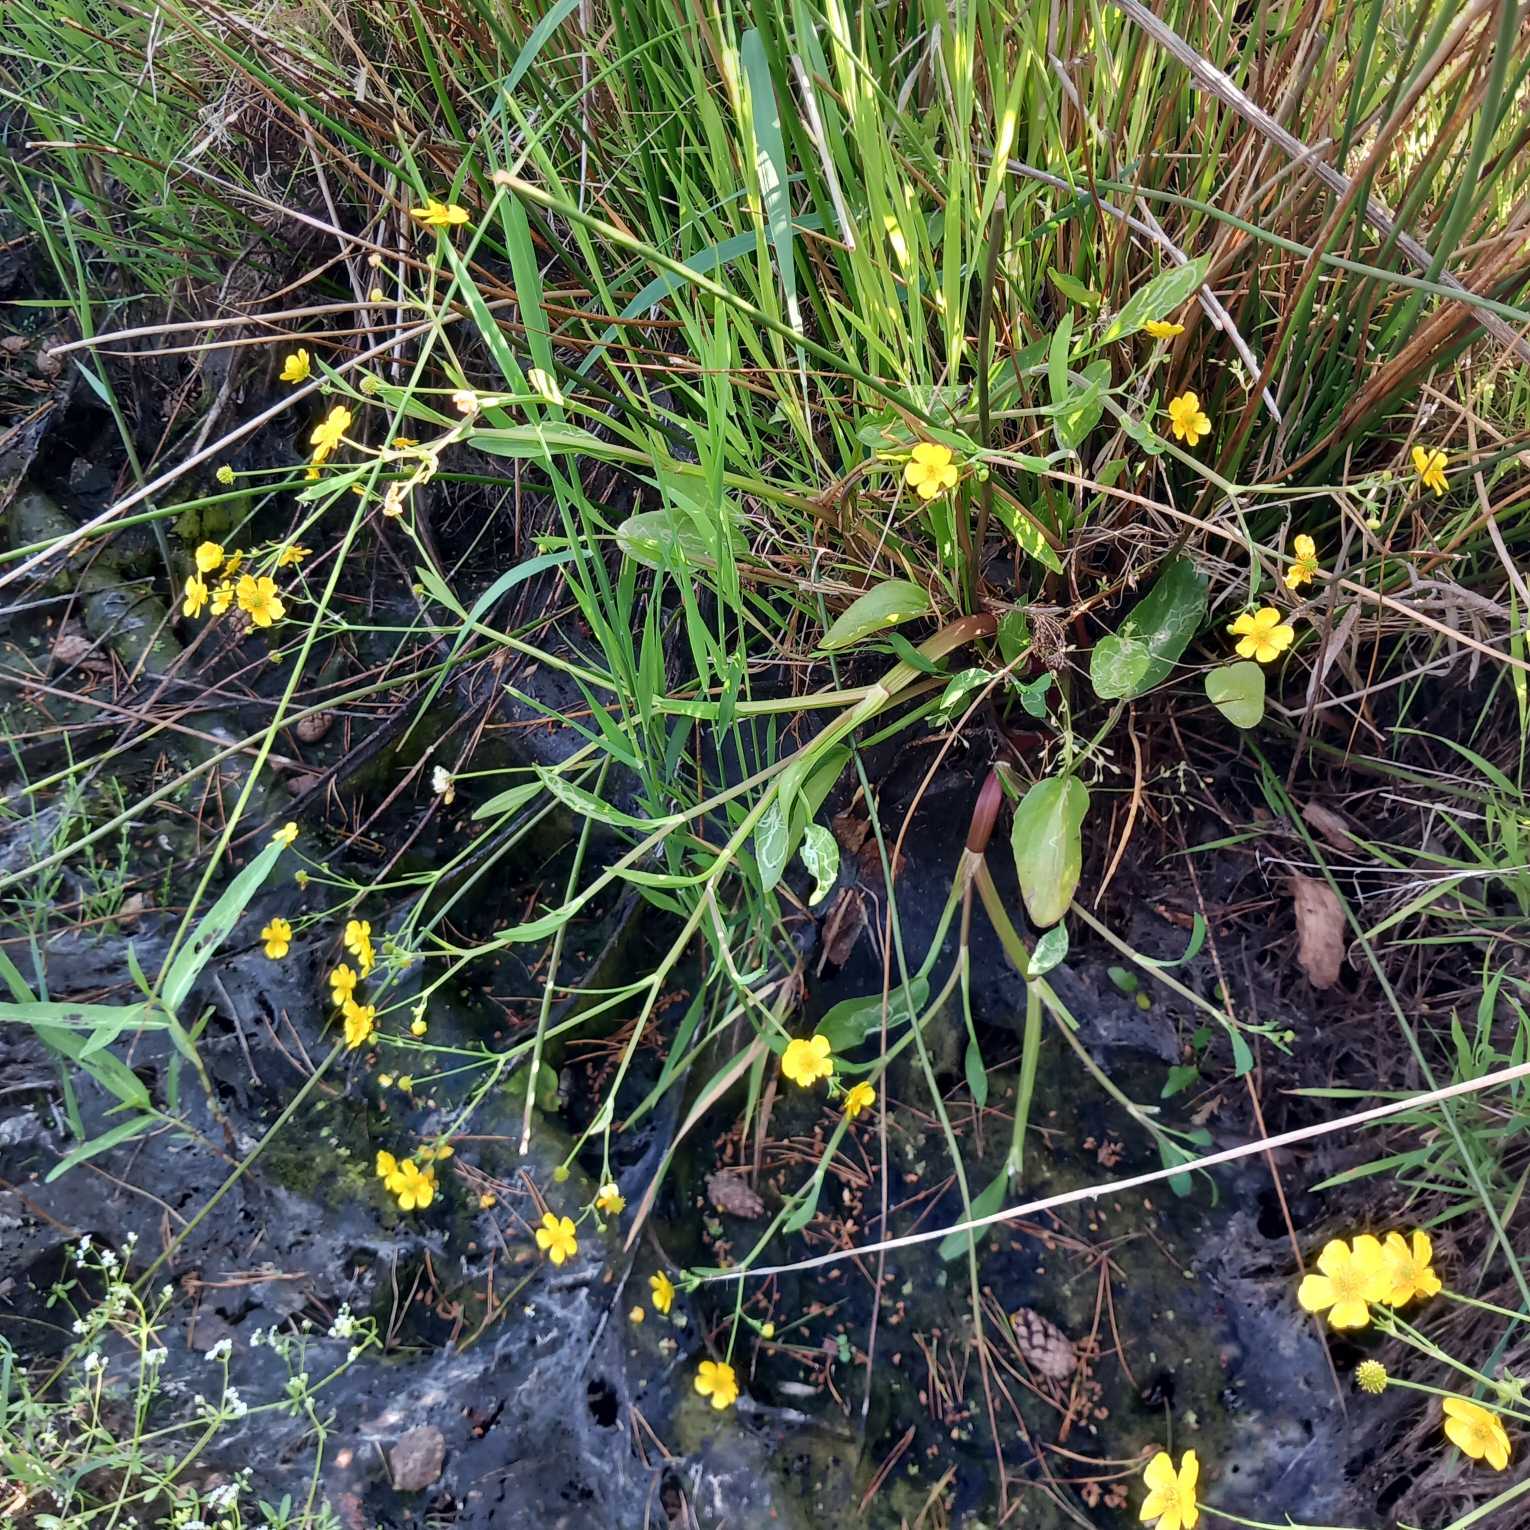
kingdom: Plantae
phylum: Tracheophyta
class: Magnoliopsida
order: Ranunculales
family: Ranunculaceae
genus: Ranunculus
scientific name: Ranunculus flammula
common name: Kær-ranunkel
